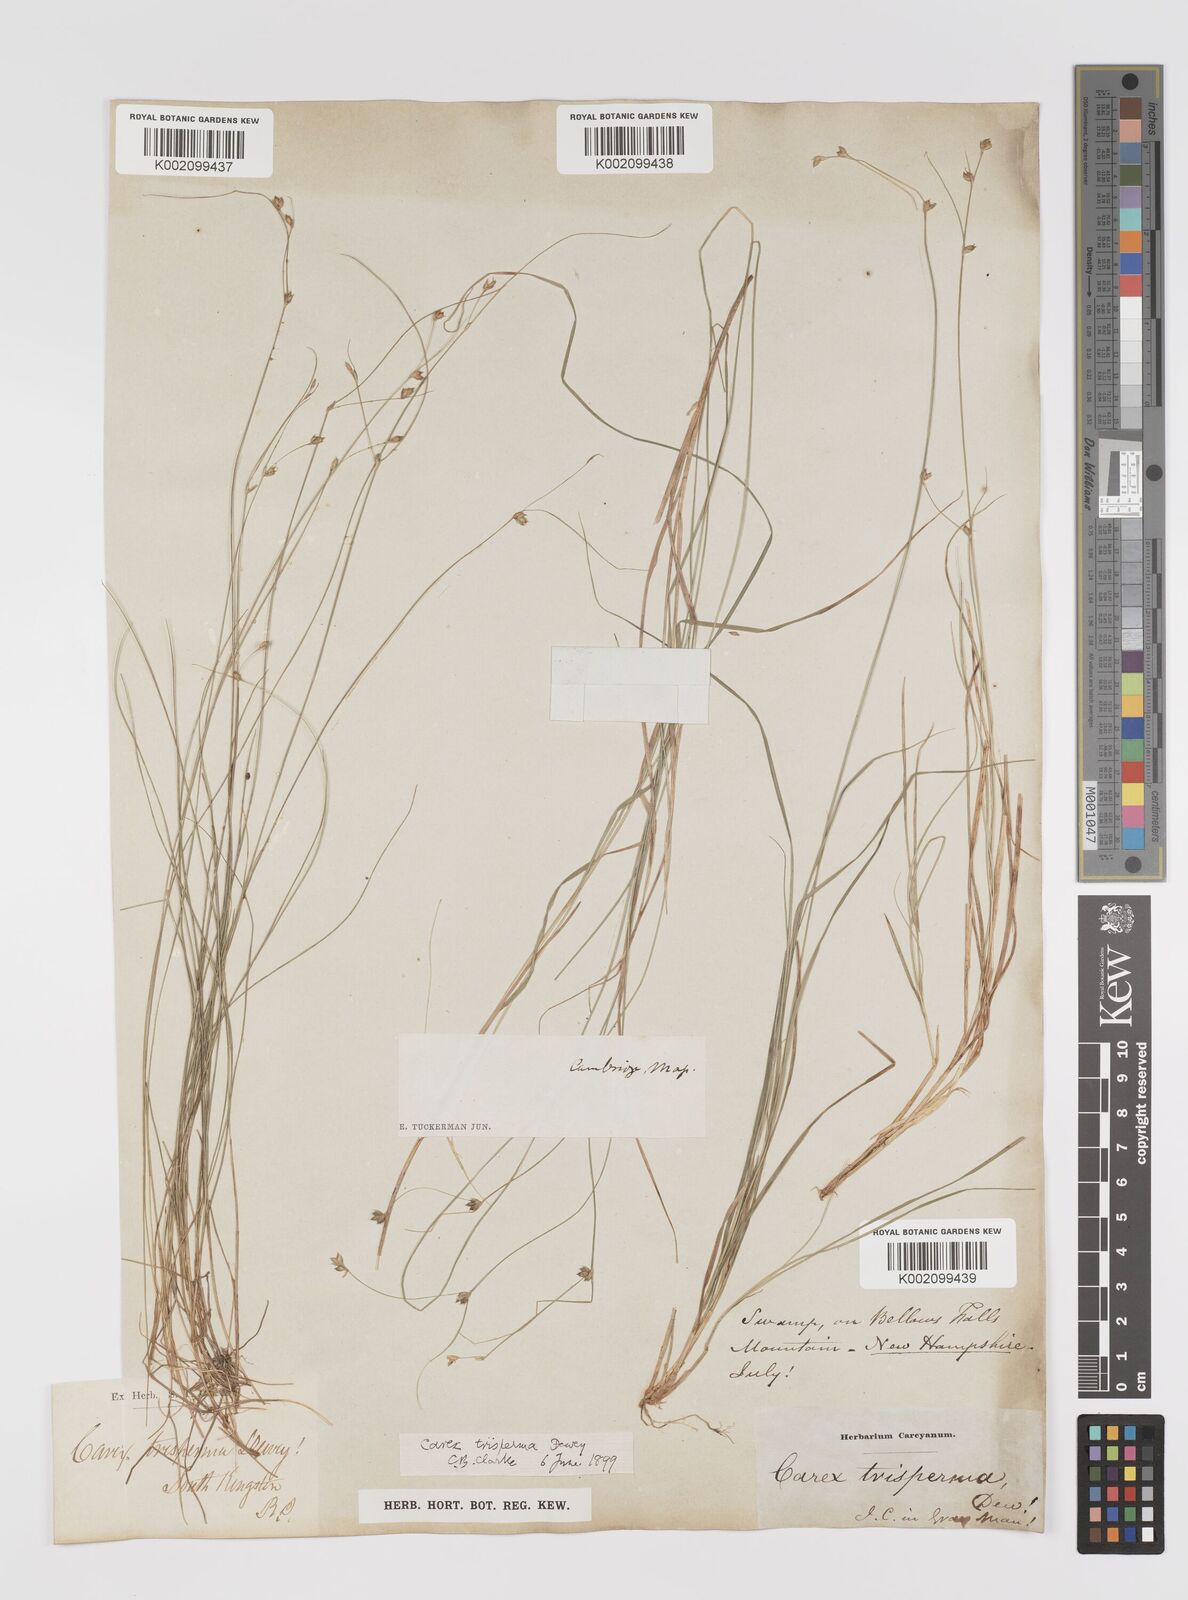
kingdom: Plantae
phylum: Tracheophyta
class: Liliopsida
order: Poales
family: Cyperaceae
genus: Carex
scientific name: Carex trisperma
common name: Three-seeded sedge
